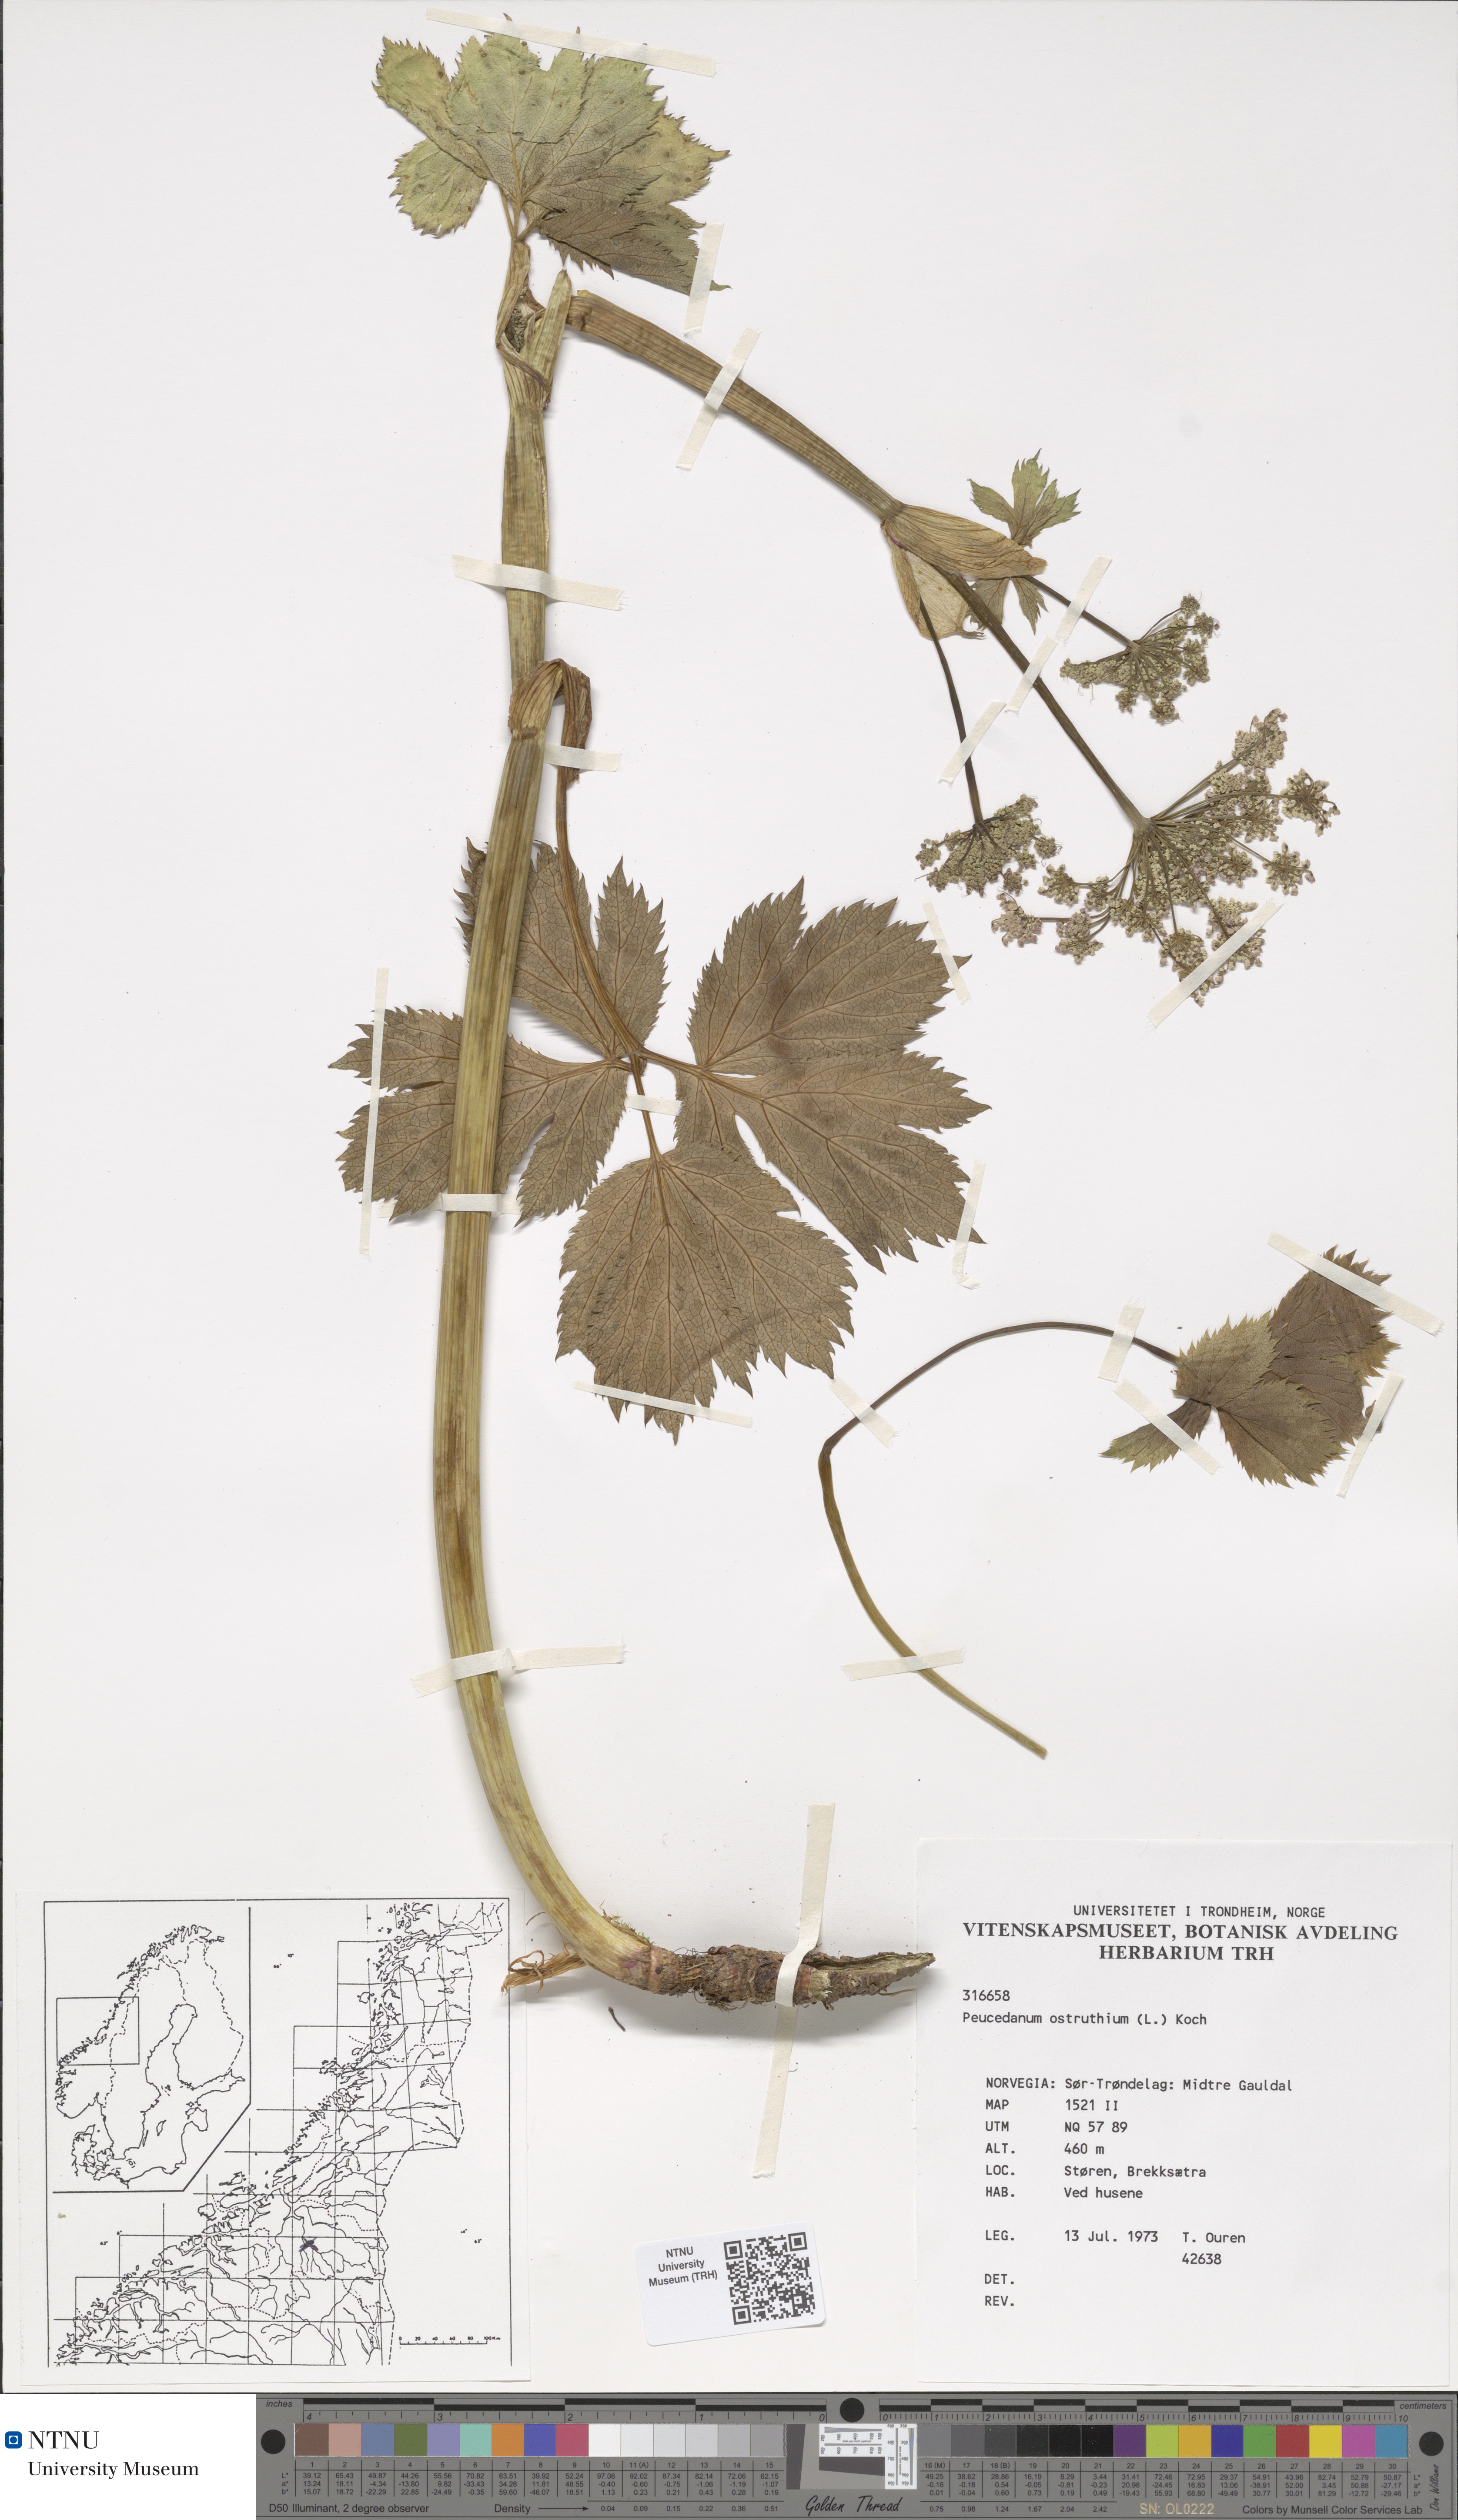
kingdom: Plantae
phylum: Tracheophyta
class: Magnoliopsida
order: Apiales
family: Apiaceae
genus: Imperatoria
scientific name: Imperatoria ostruthium
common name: Masterwort
